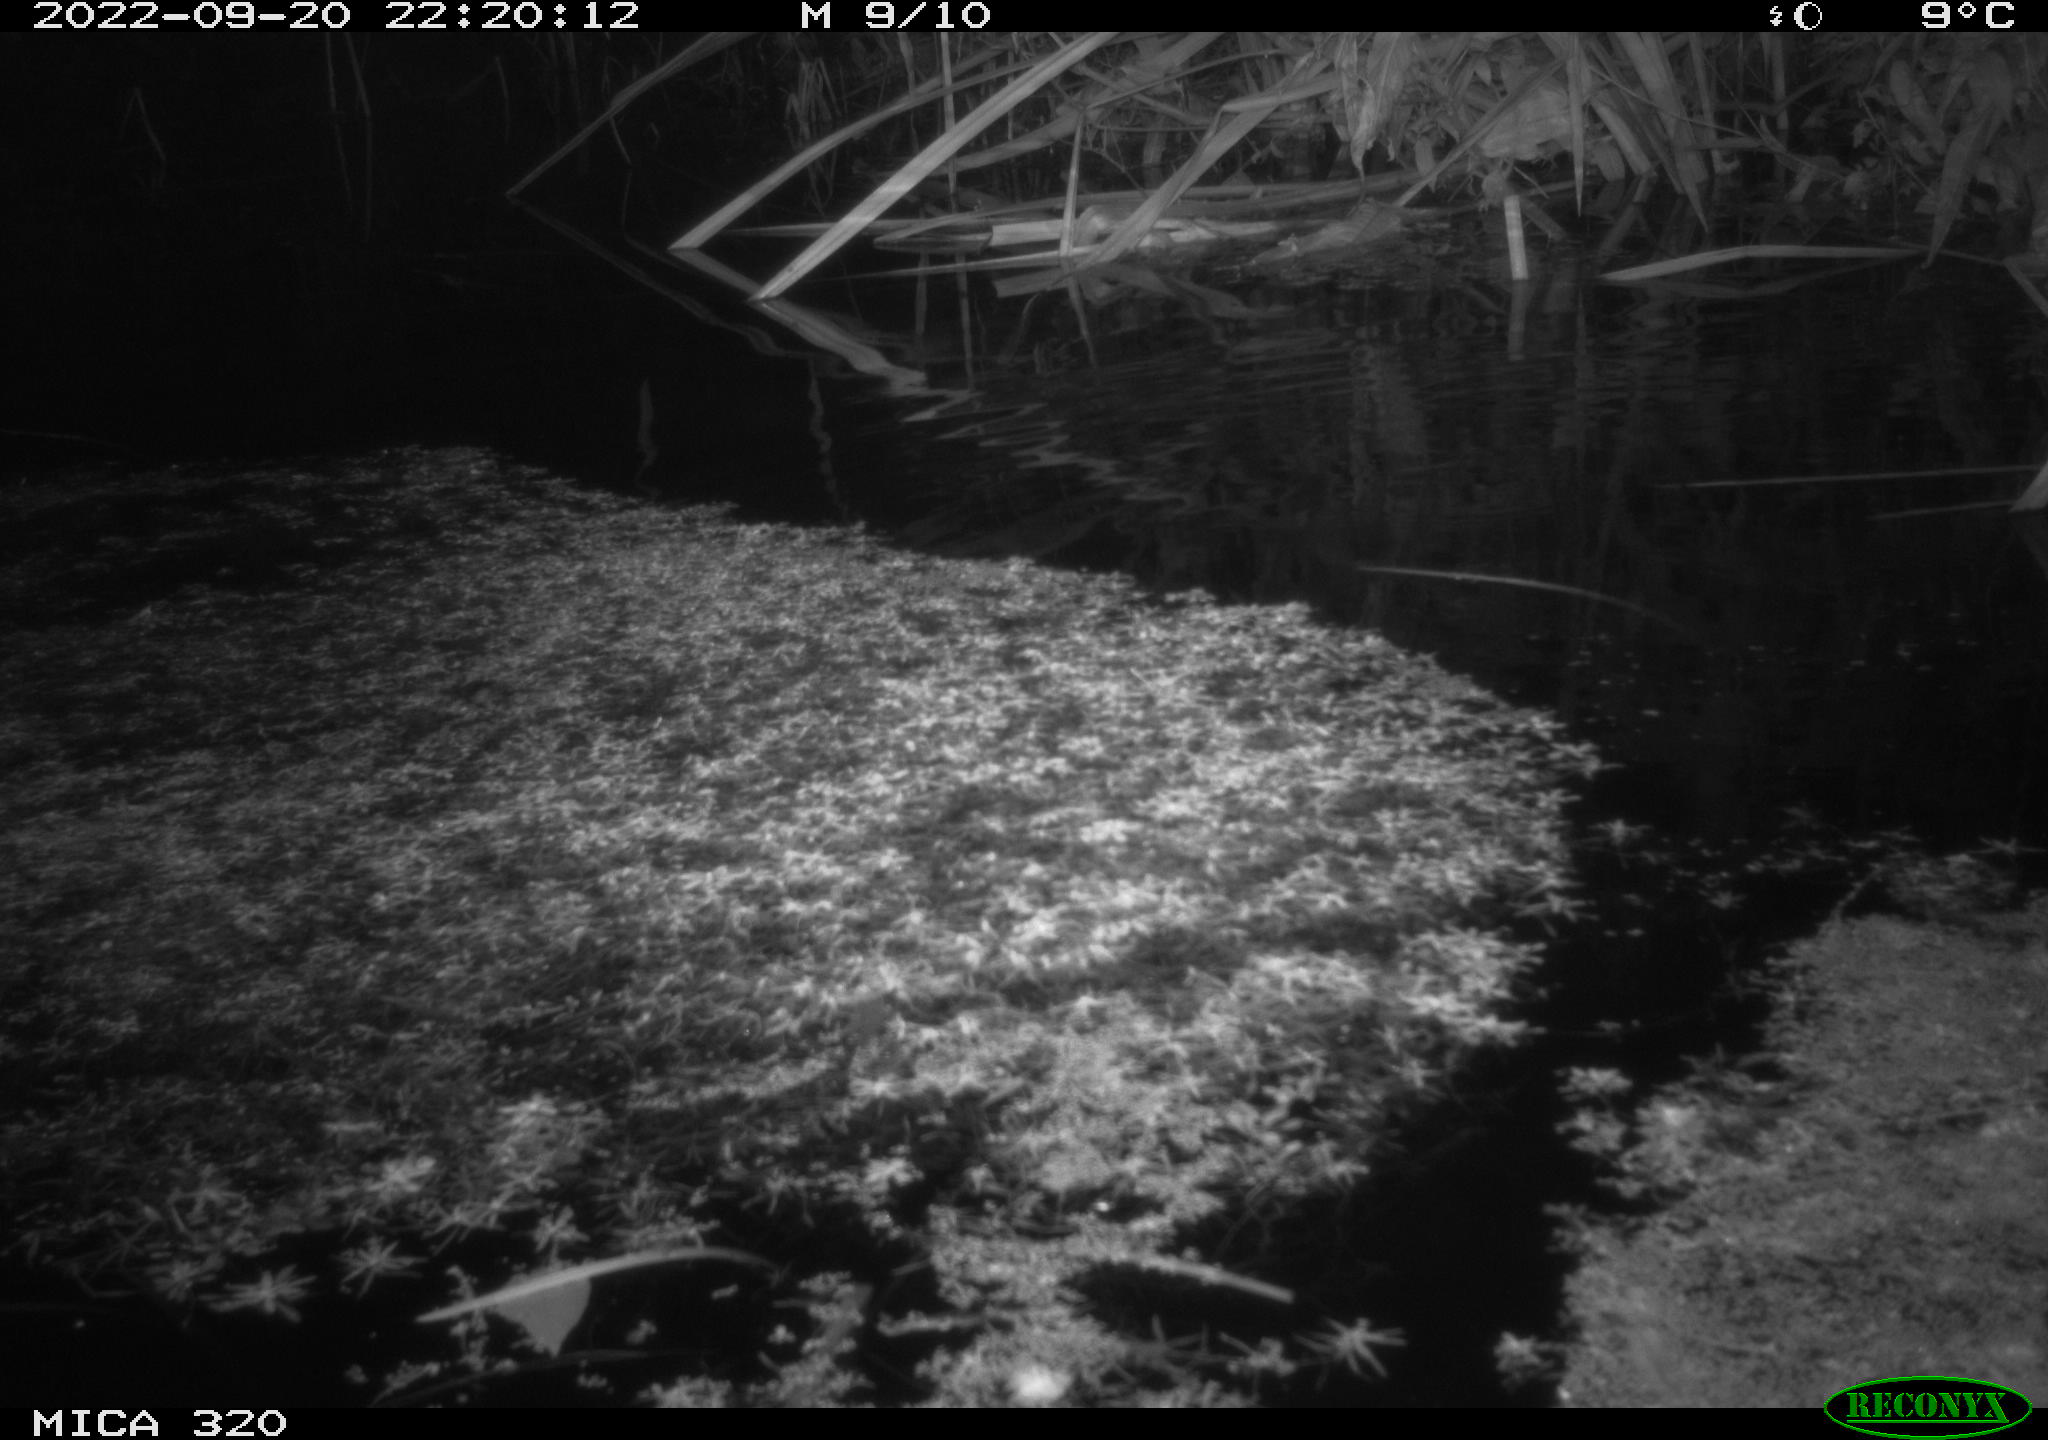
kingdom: Animalia
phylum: Chordata
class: Mammalia
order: Rodentia
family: Muridae
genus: Rattus
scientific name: Rattus norvegicus
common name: Brown rat
